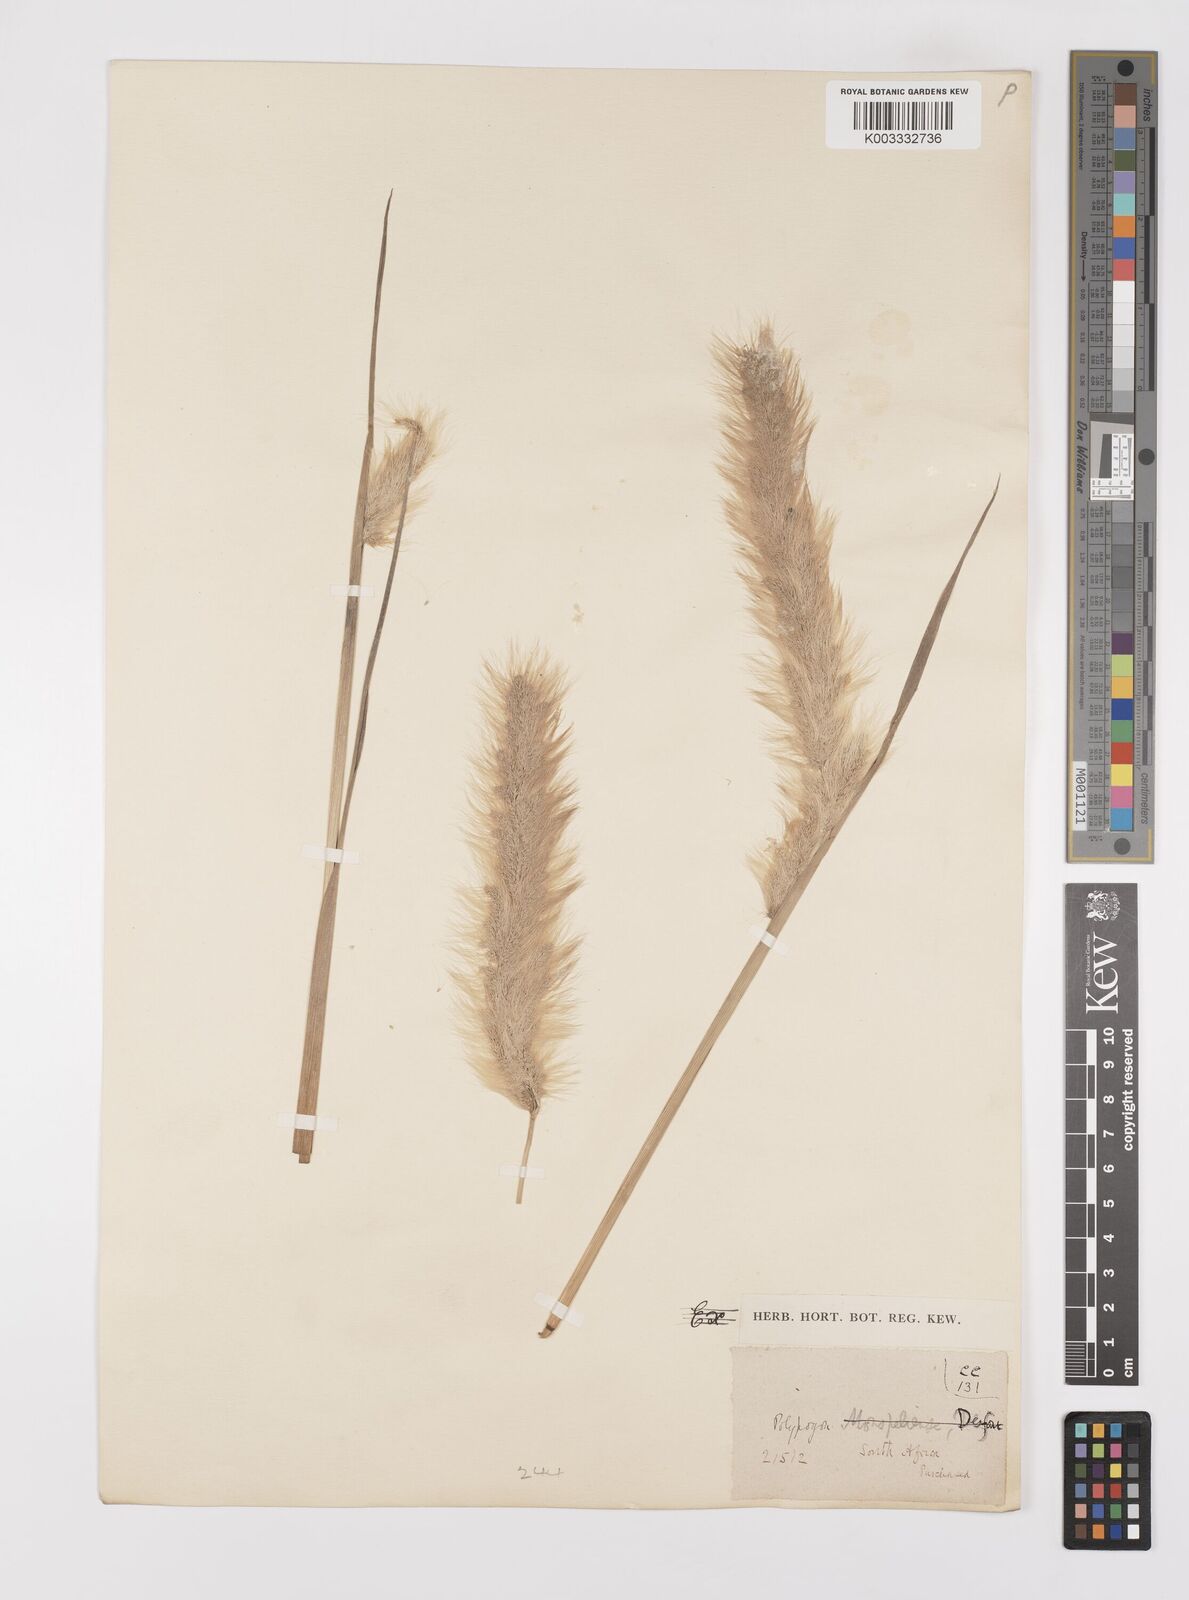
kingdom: Plantae
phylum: Tracheophyta
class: Liliopsida
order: Poales
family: Poaceae
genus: Polypogon
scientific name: Polypogon tenuis
